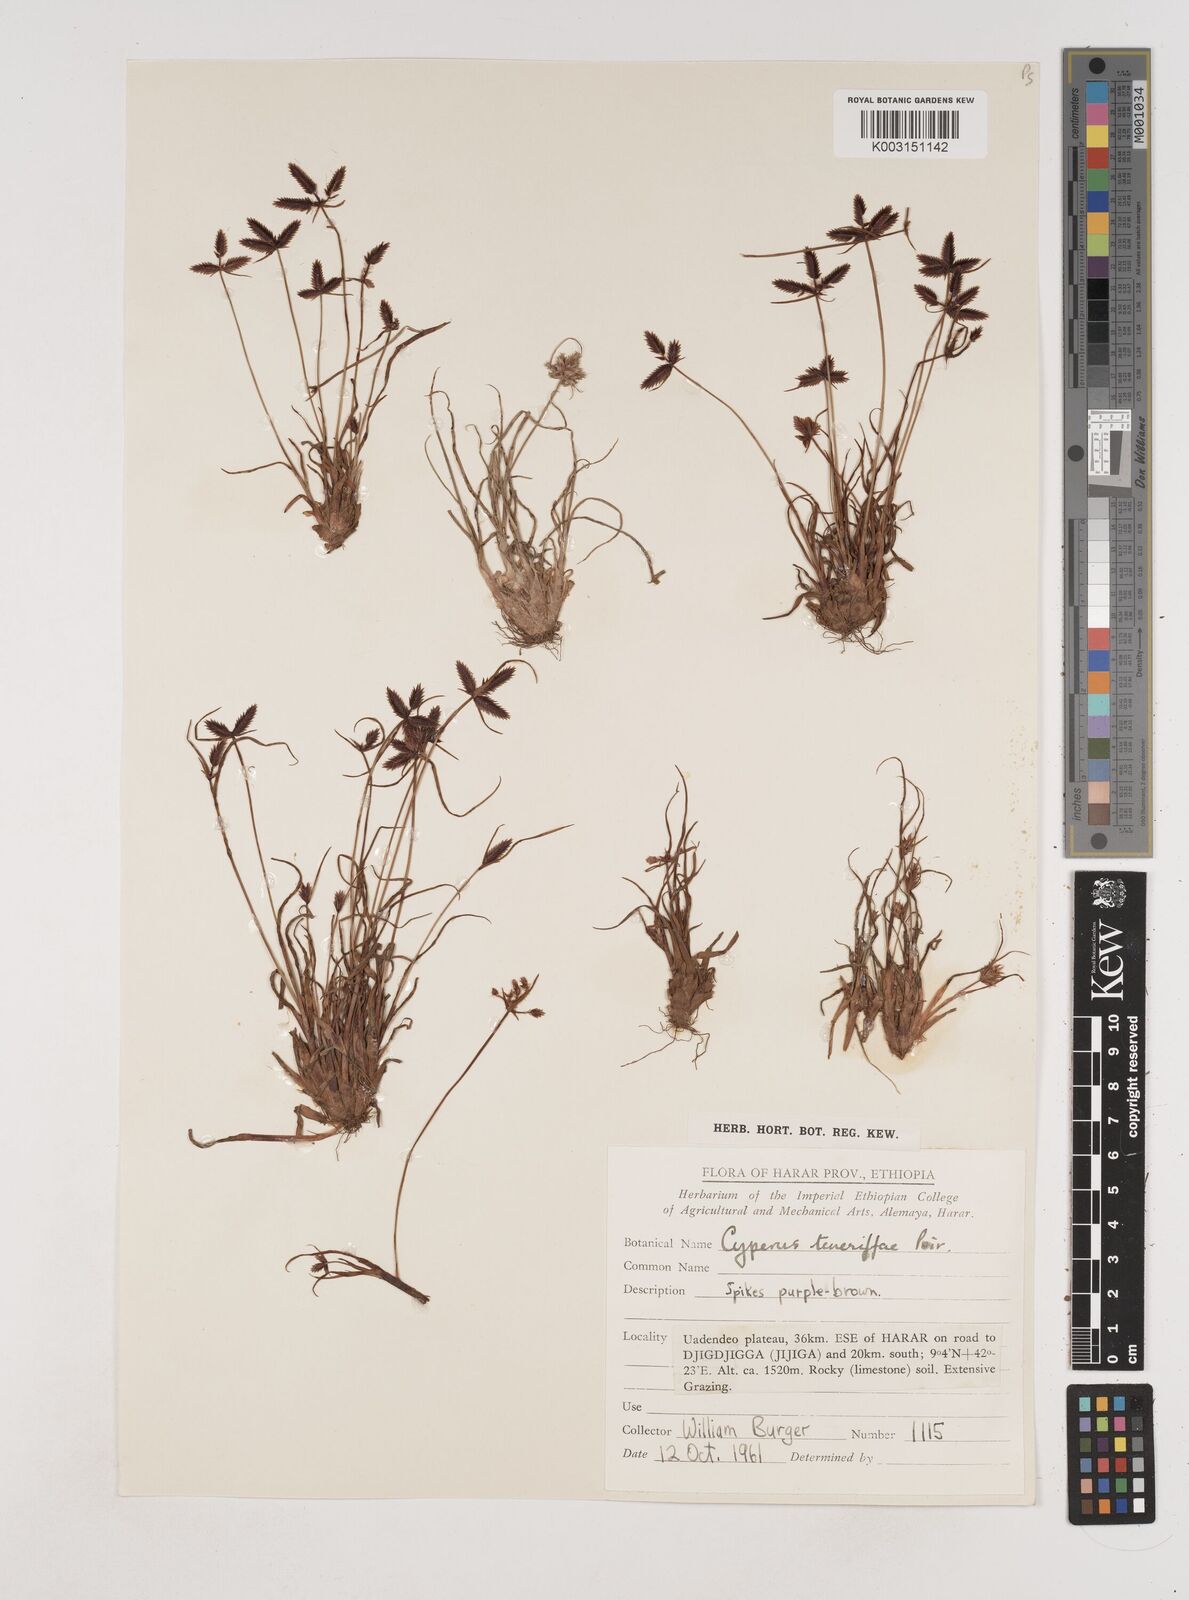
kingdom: Plantae
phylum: Tracheophyta
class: Liliopsida
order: Poales
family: Cyperaceae
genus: Cyperus
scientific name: Cyperus rubicundus
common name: Coco-grass
